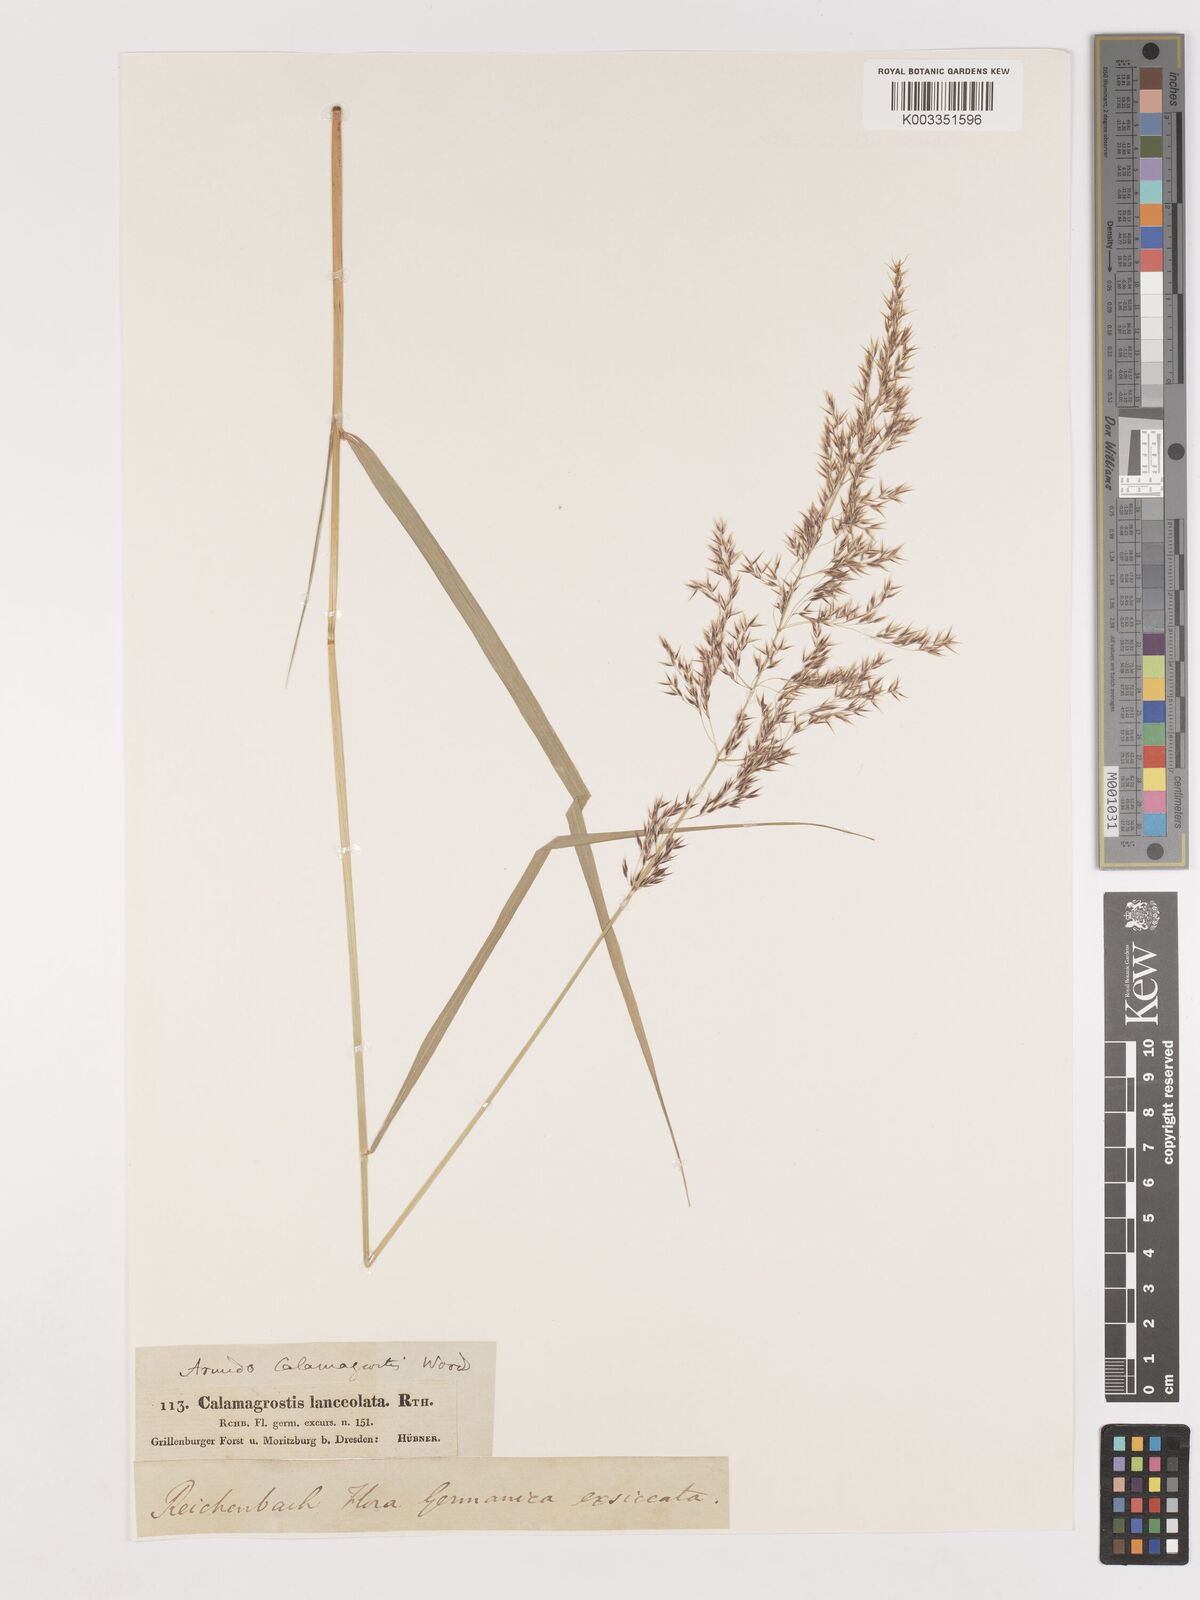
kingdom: Plantae
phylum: Tracheophyta
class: Liliopsida
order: Poales
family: Poaceae
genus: Calamagrostis
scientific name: Calamagrostis canescens
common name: Purple small-reed
